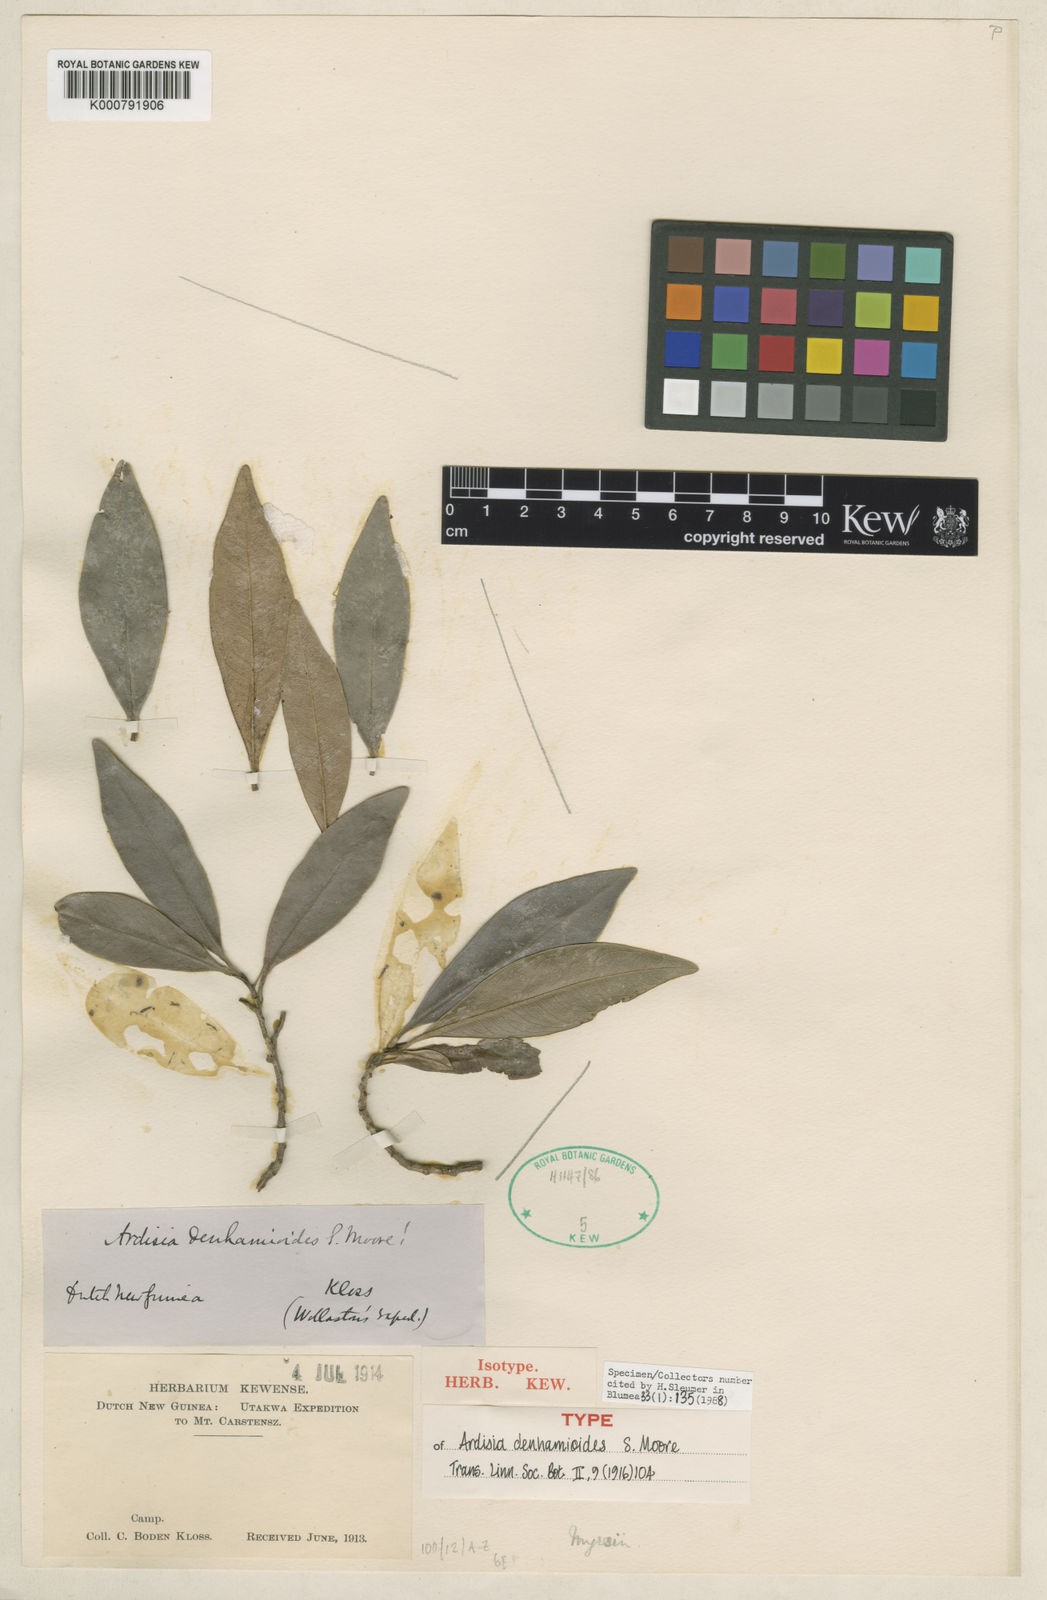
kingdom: Plantae
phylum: Tracheophyta
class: Magnoliopsida
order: Ericales
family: Primulaceae
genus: Ardisia
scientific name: Ardisia denhamioides
